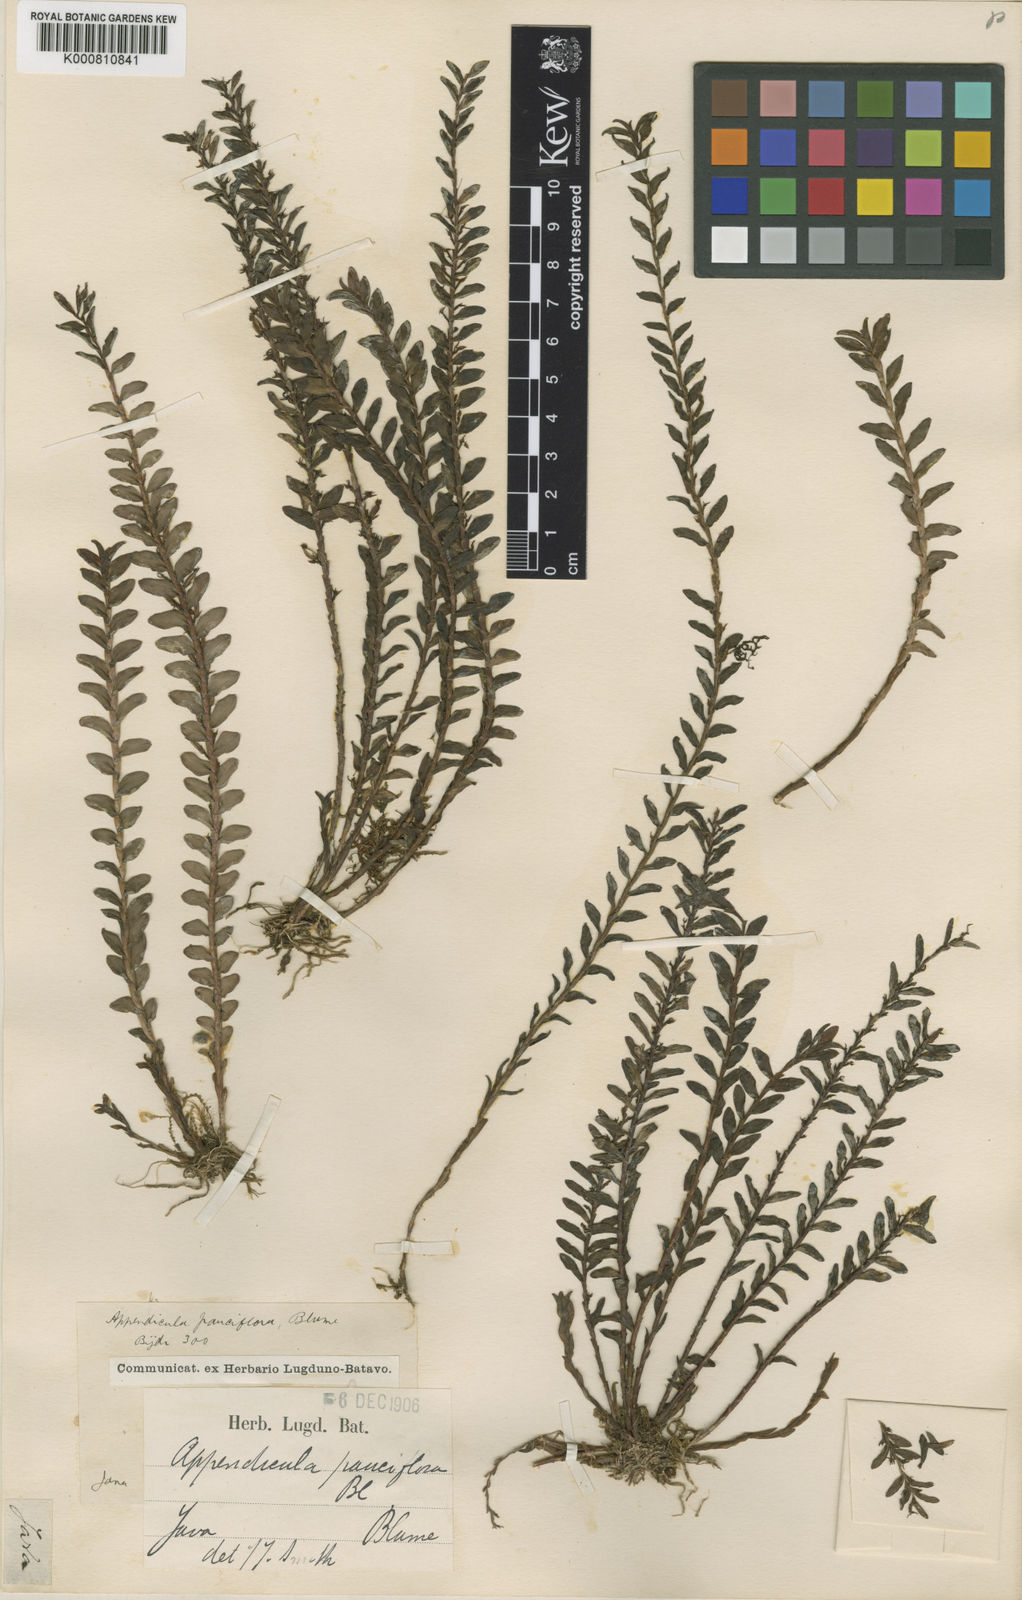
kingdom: Plantae
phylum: Tracheophyta
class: Liliopsida
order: Asparagales
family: Orchidaceae
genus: Appendicula
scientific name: Appendicula padangensis
